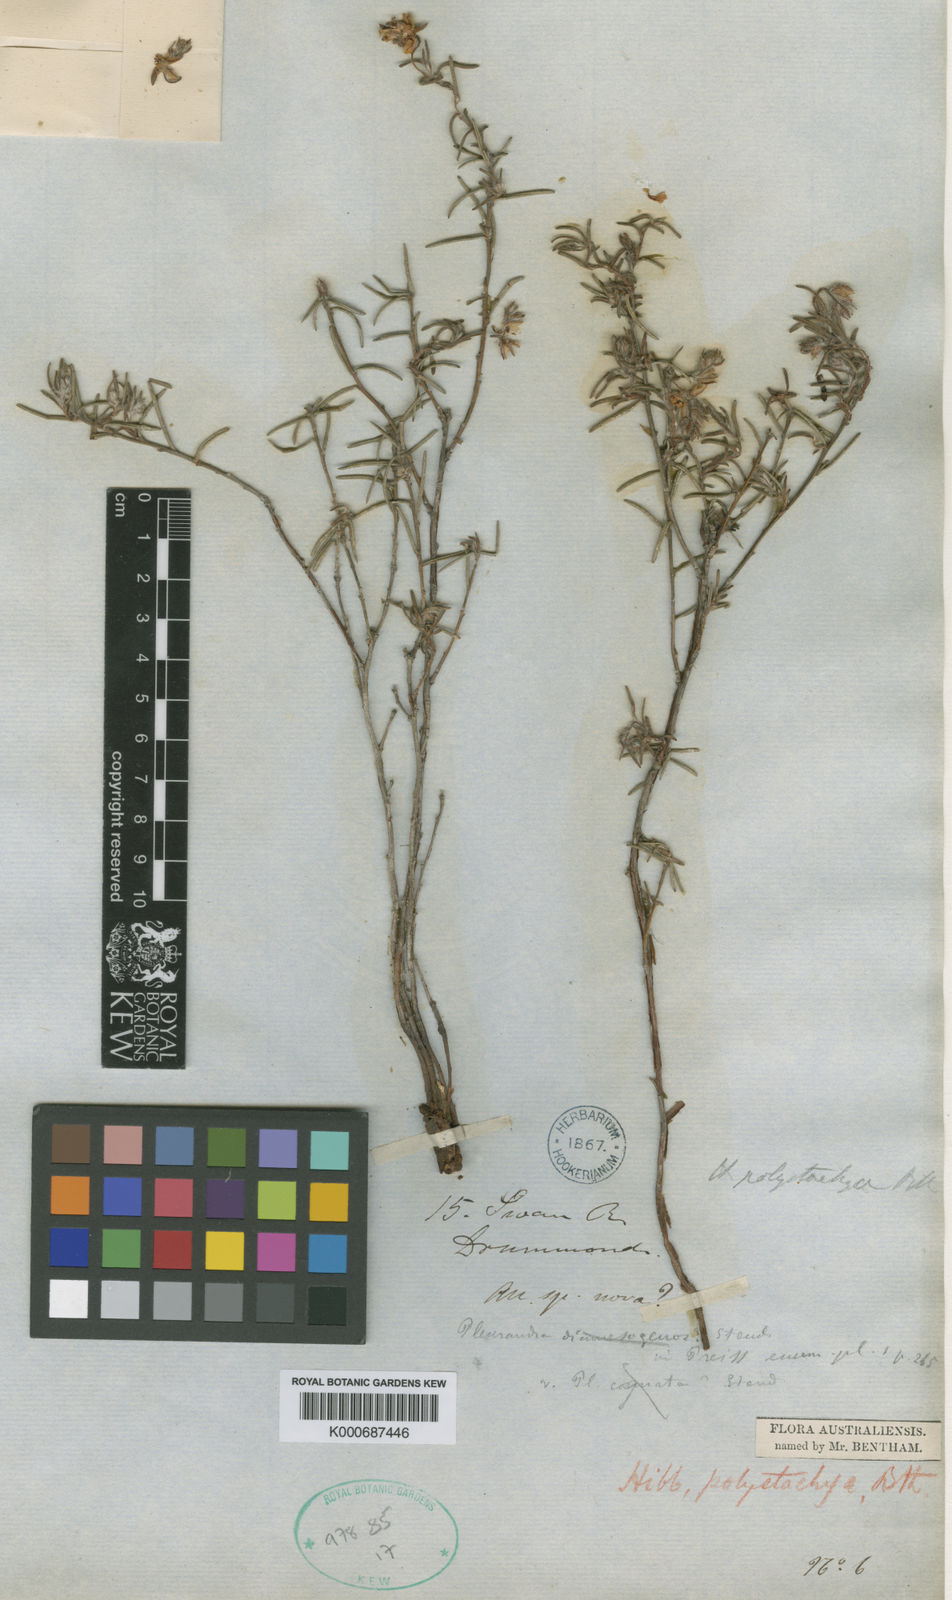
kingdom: Plantae
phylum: Tracheophyta
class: Magnoliopsida
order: Dilleniales
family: Dilleniaceae
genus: Hibbertia
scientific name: Hibbertia polystachya
